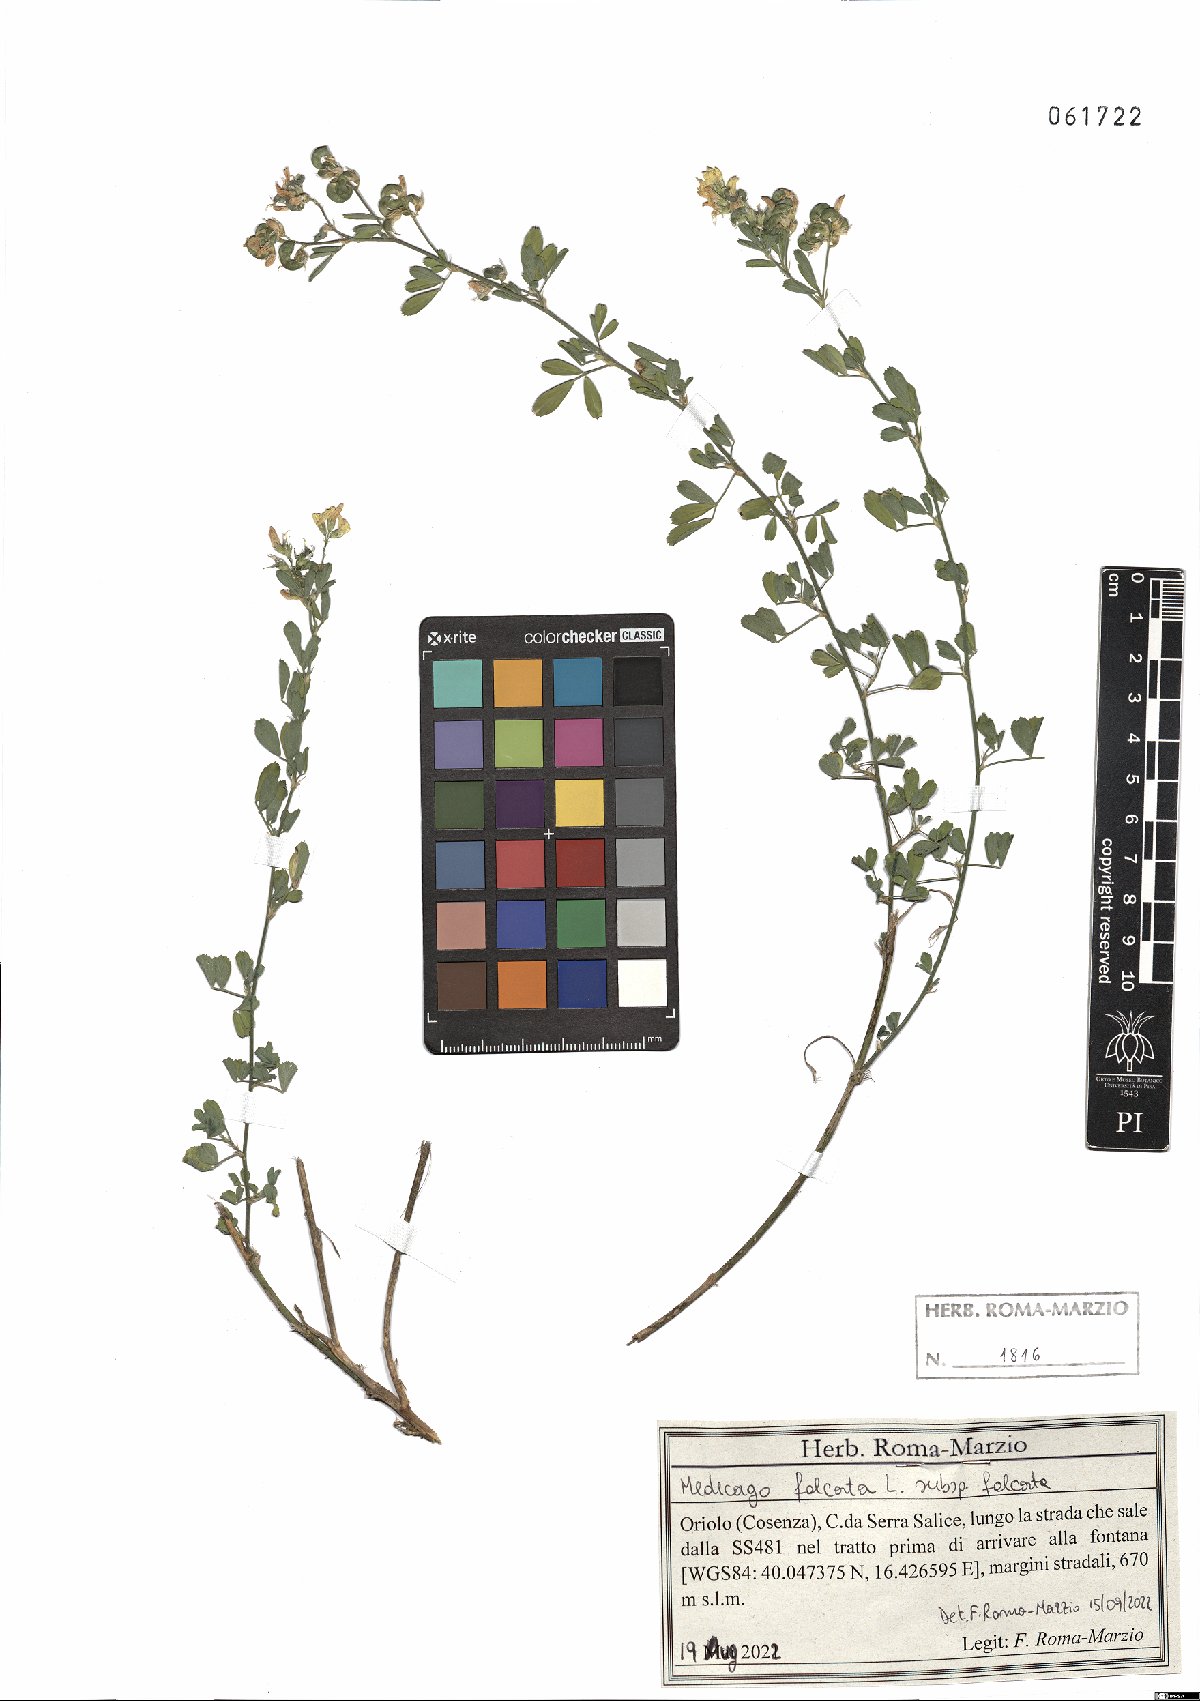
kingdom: Plantae
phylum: Tracheophyta
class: Magnoliopsida
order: Fabales
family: Fabaceae
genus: Medicago
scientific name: Medicago falcata
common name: Sickle medick
